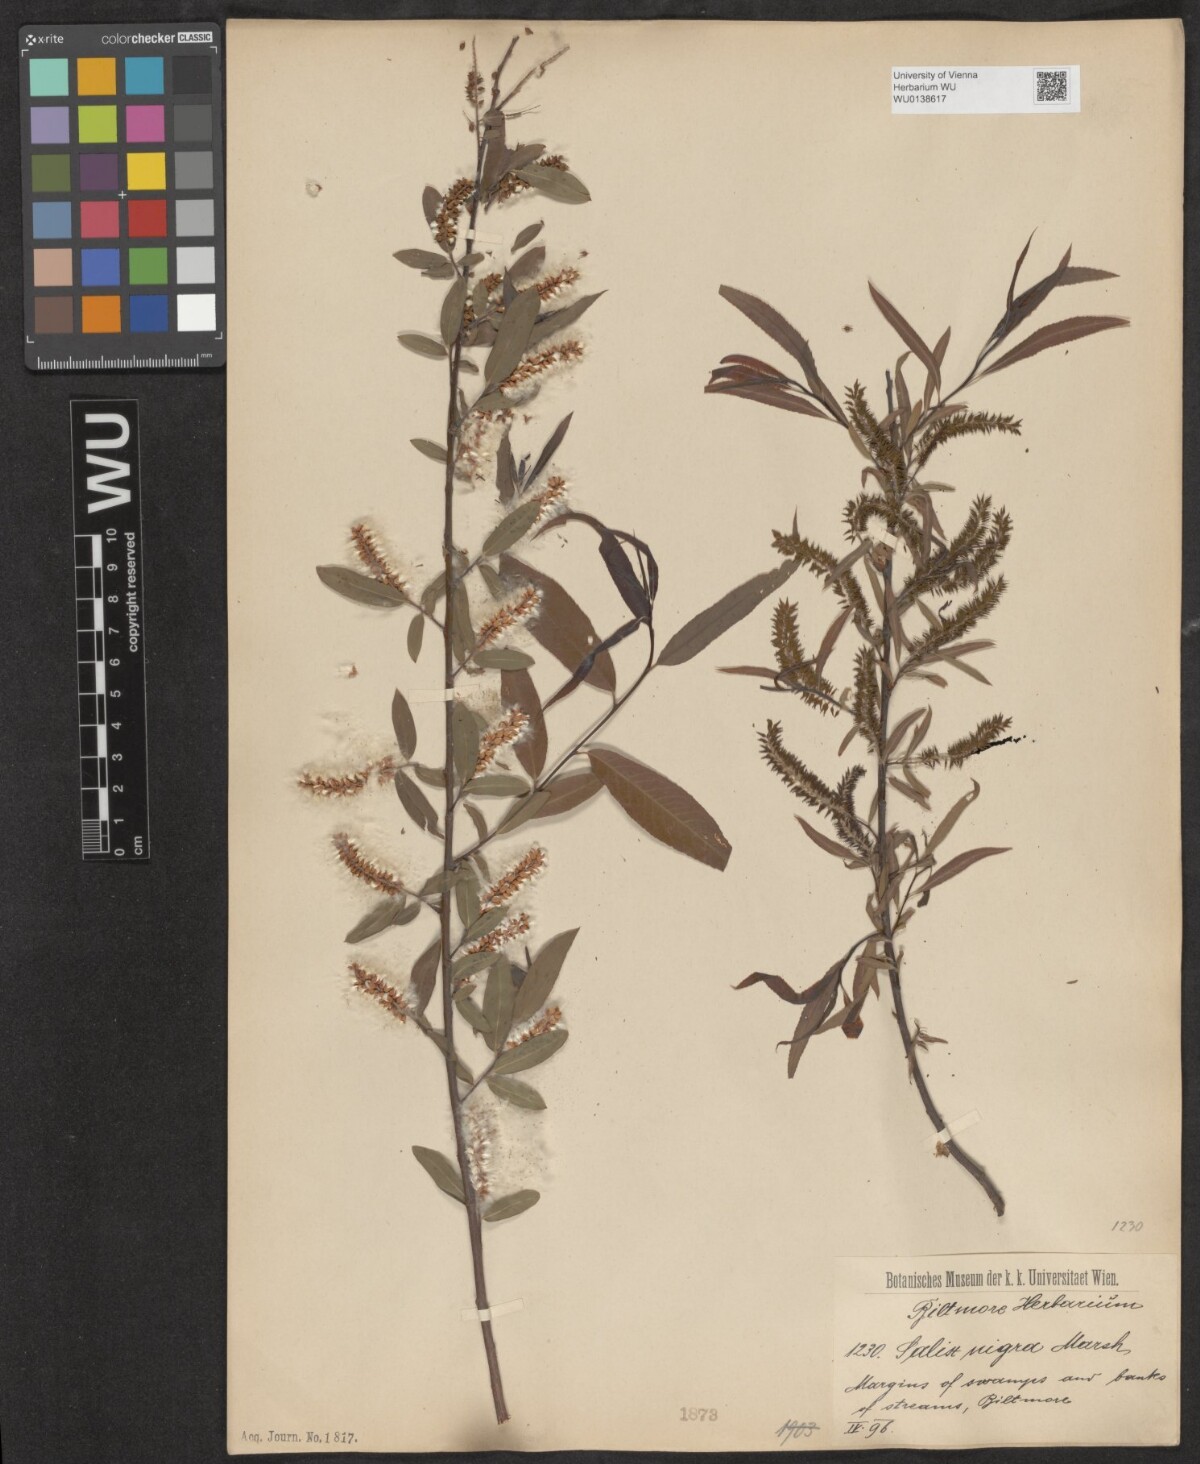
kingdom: Plantae
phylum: Tracheophyta
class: Magnoliopsida
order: Malpighiales
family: Salicaceae
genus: Salix
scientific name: Salix nigra
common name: Black willow
